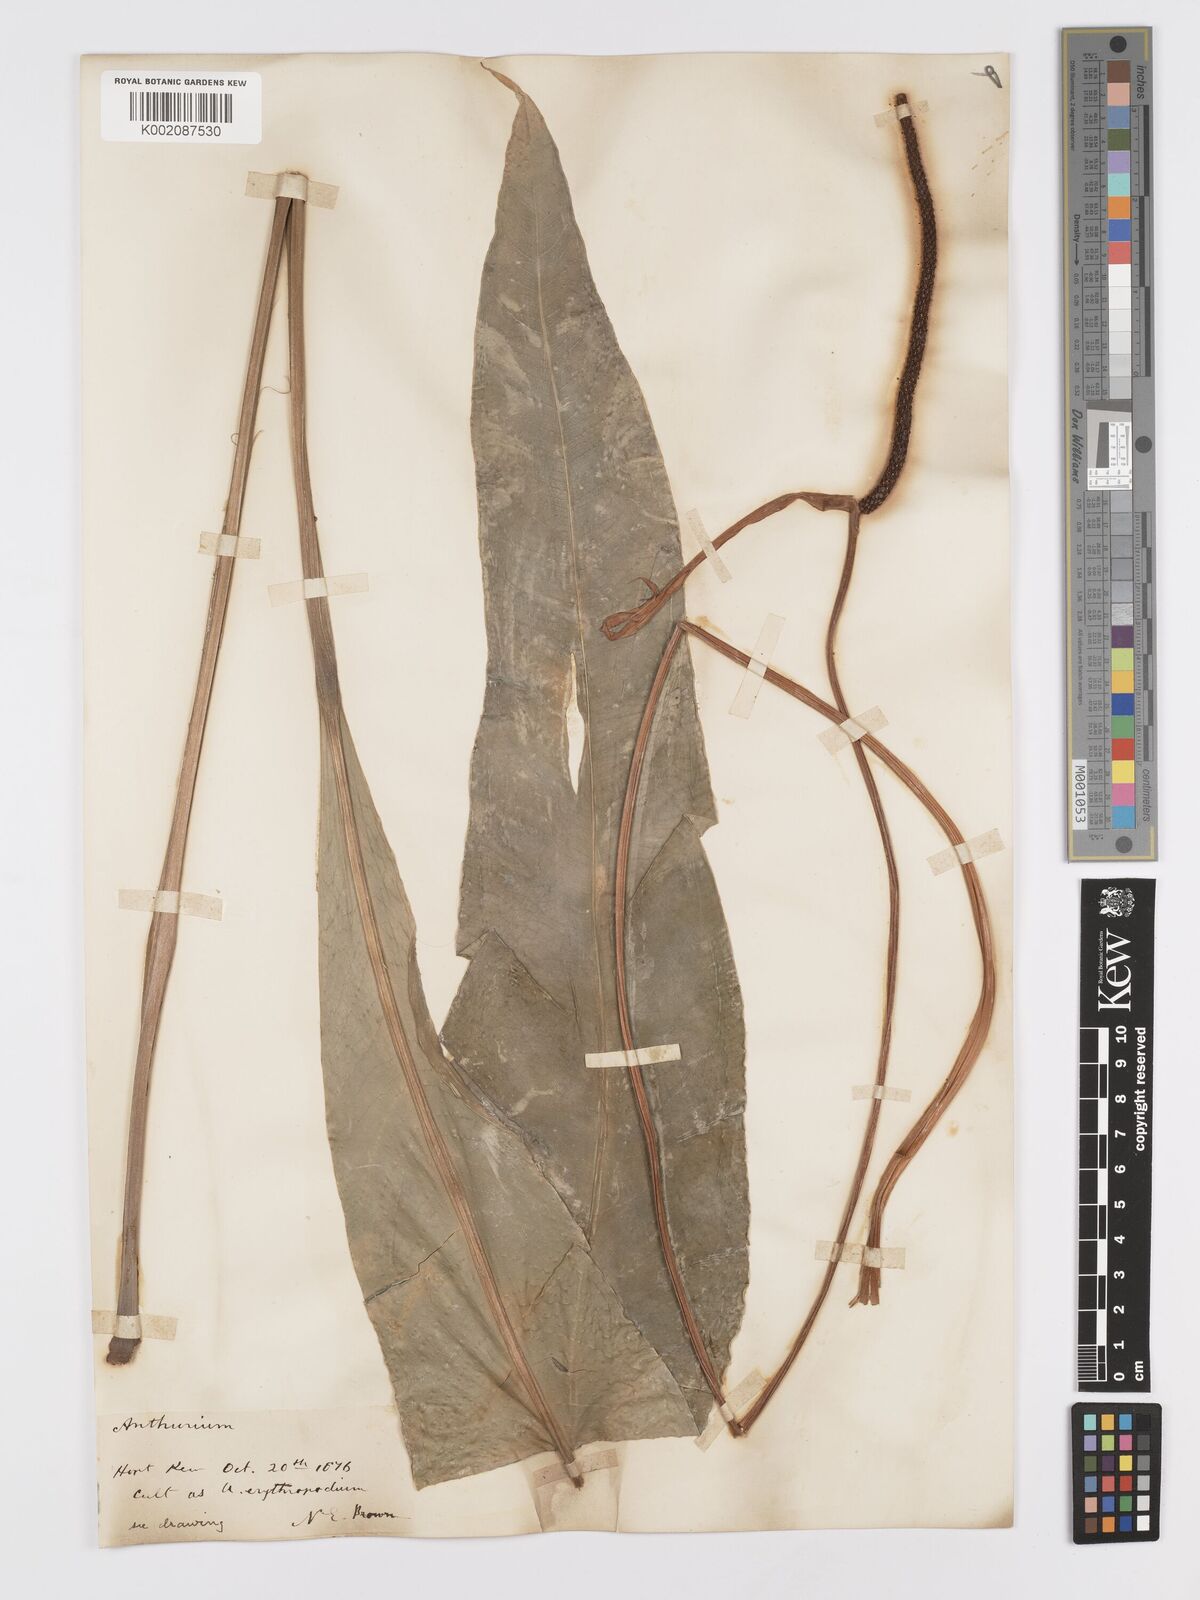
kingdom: Plantae
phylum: Tracheophyta
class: Liliopsida
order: Alismatales
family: Araceae
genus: Anthurium
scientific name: Anthurium intermedium
